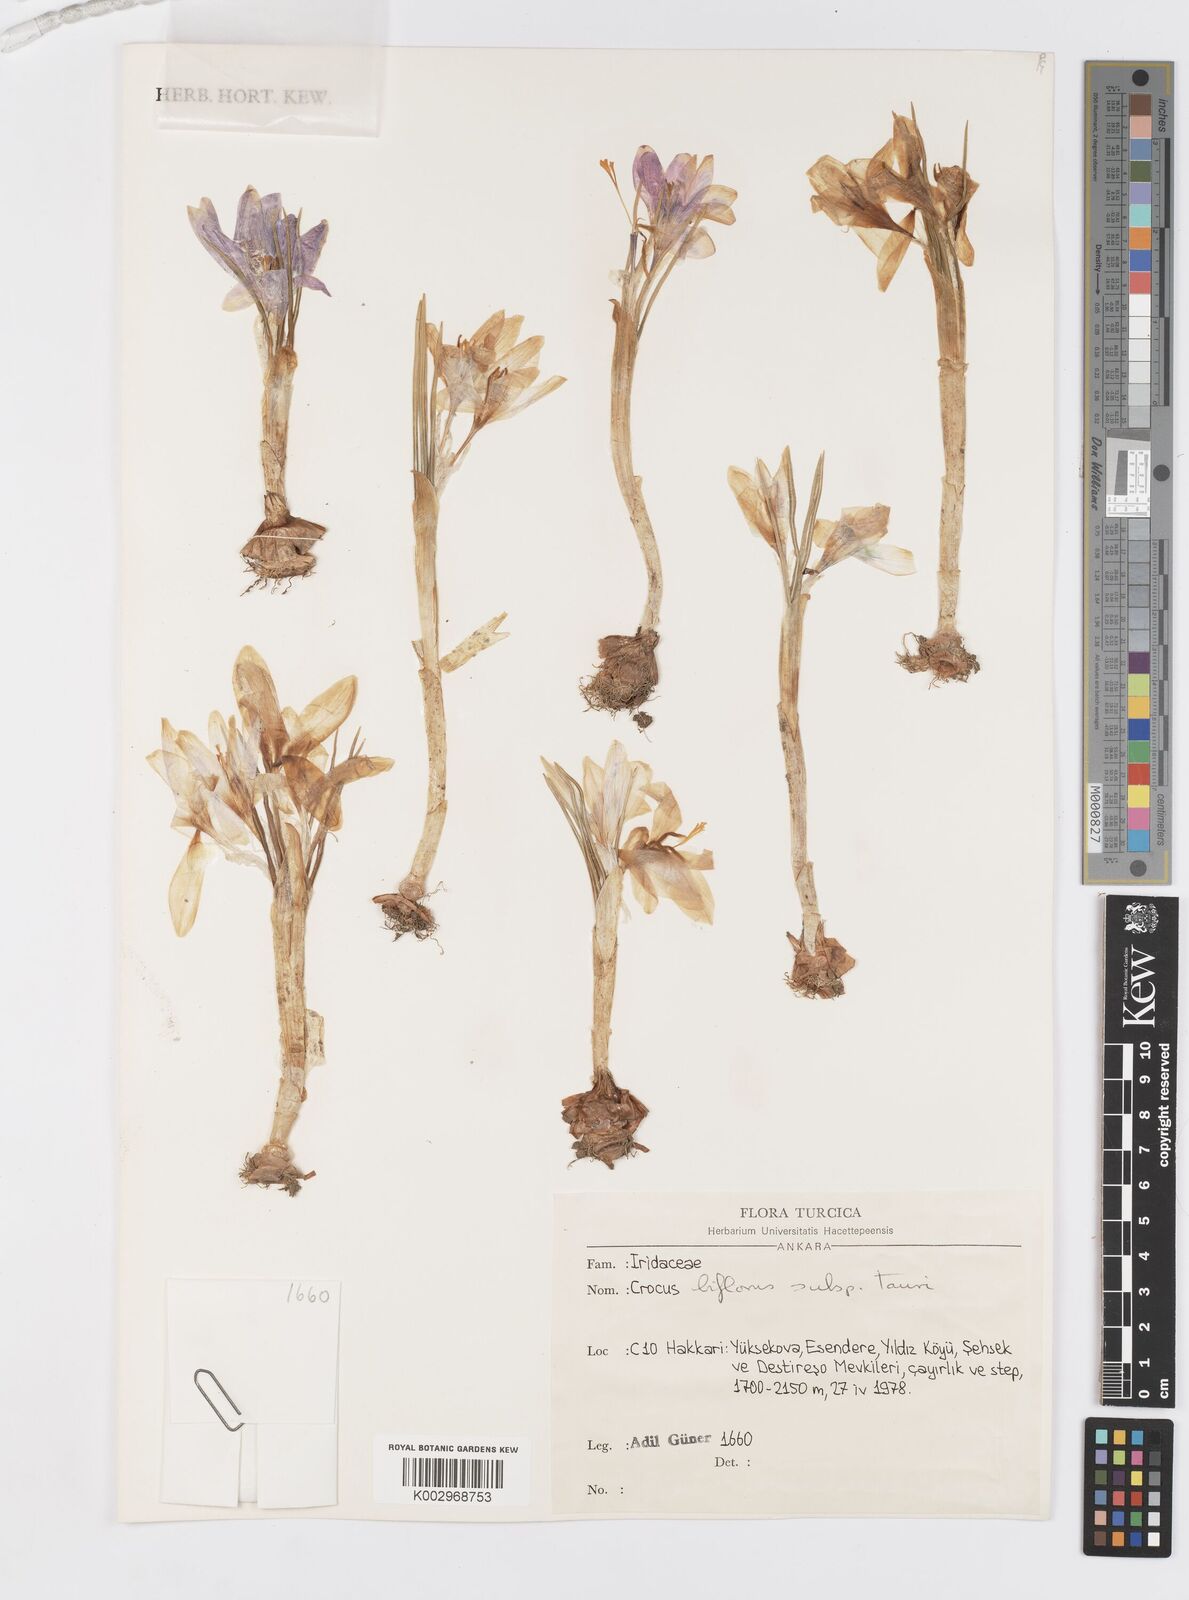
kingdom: Plantae
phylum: Tracheophyta
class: Liliopsida
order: Asparagales
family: Iridaceae
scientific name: Iridaceae
